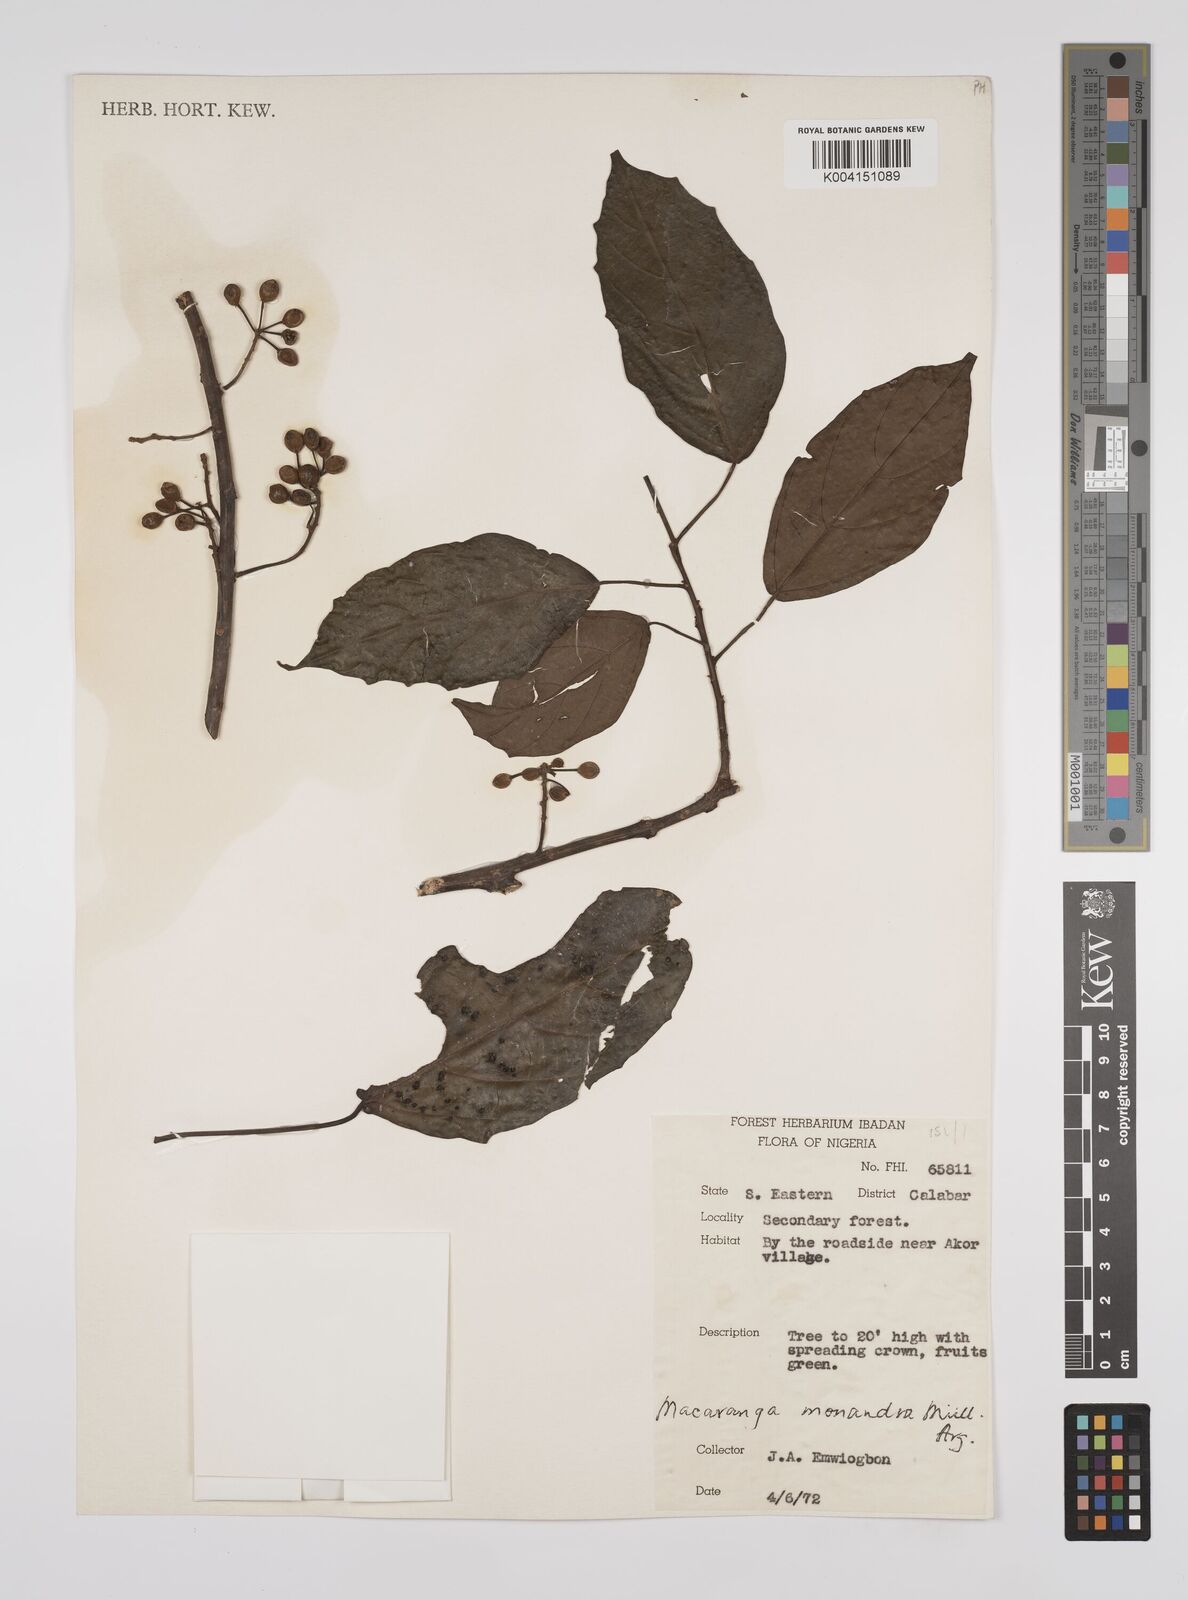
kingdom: Plantae
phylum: Tracheophyta
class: Magnoliopsida
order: Malpighiales
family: Euphorbiaceae
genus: Macaranga
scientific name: Macaranga monandra
